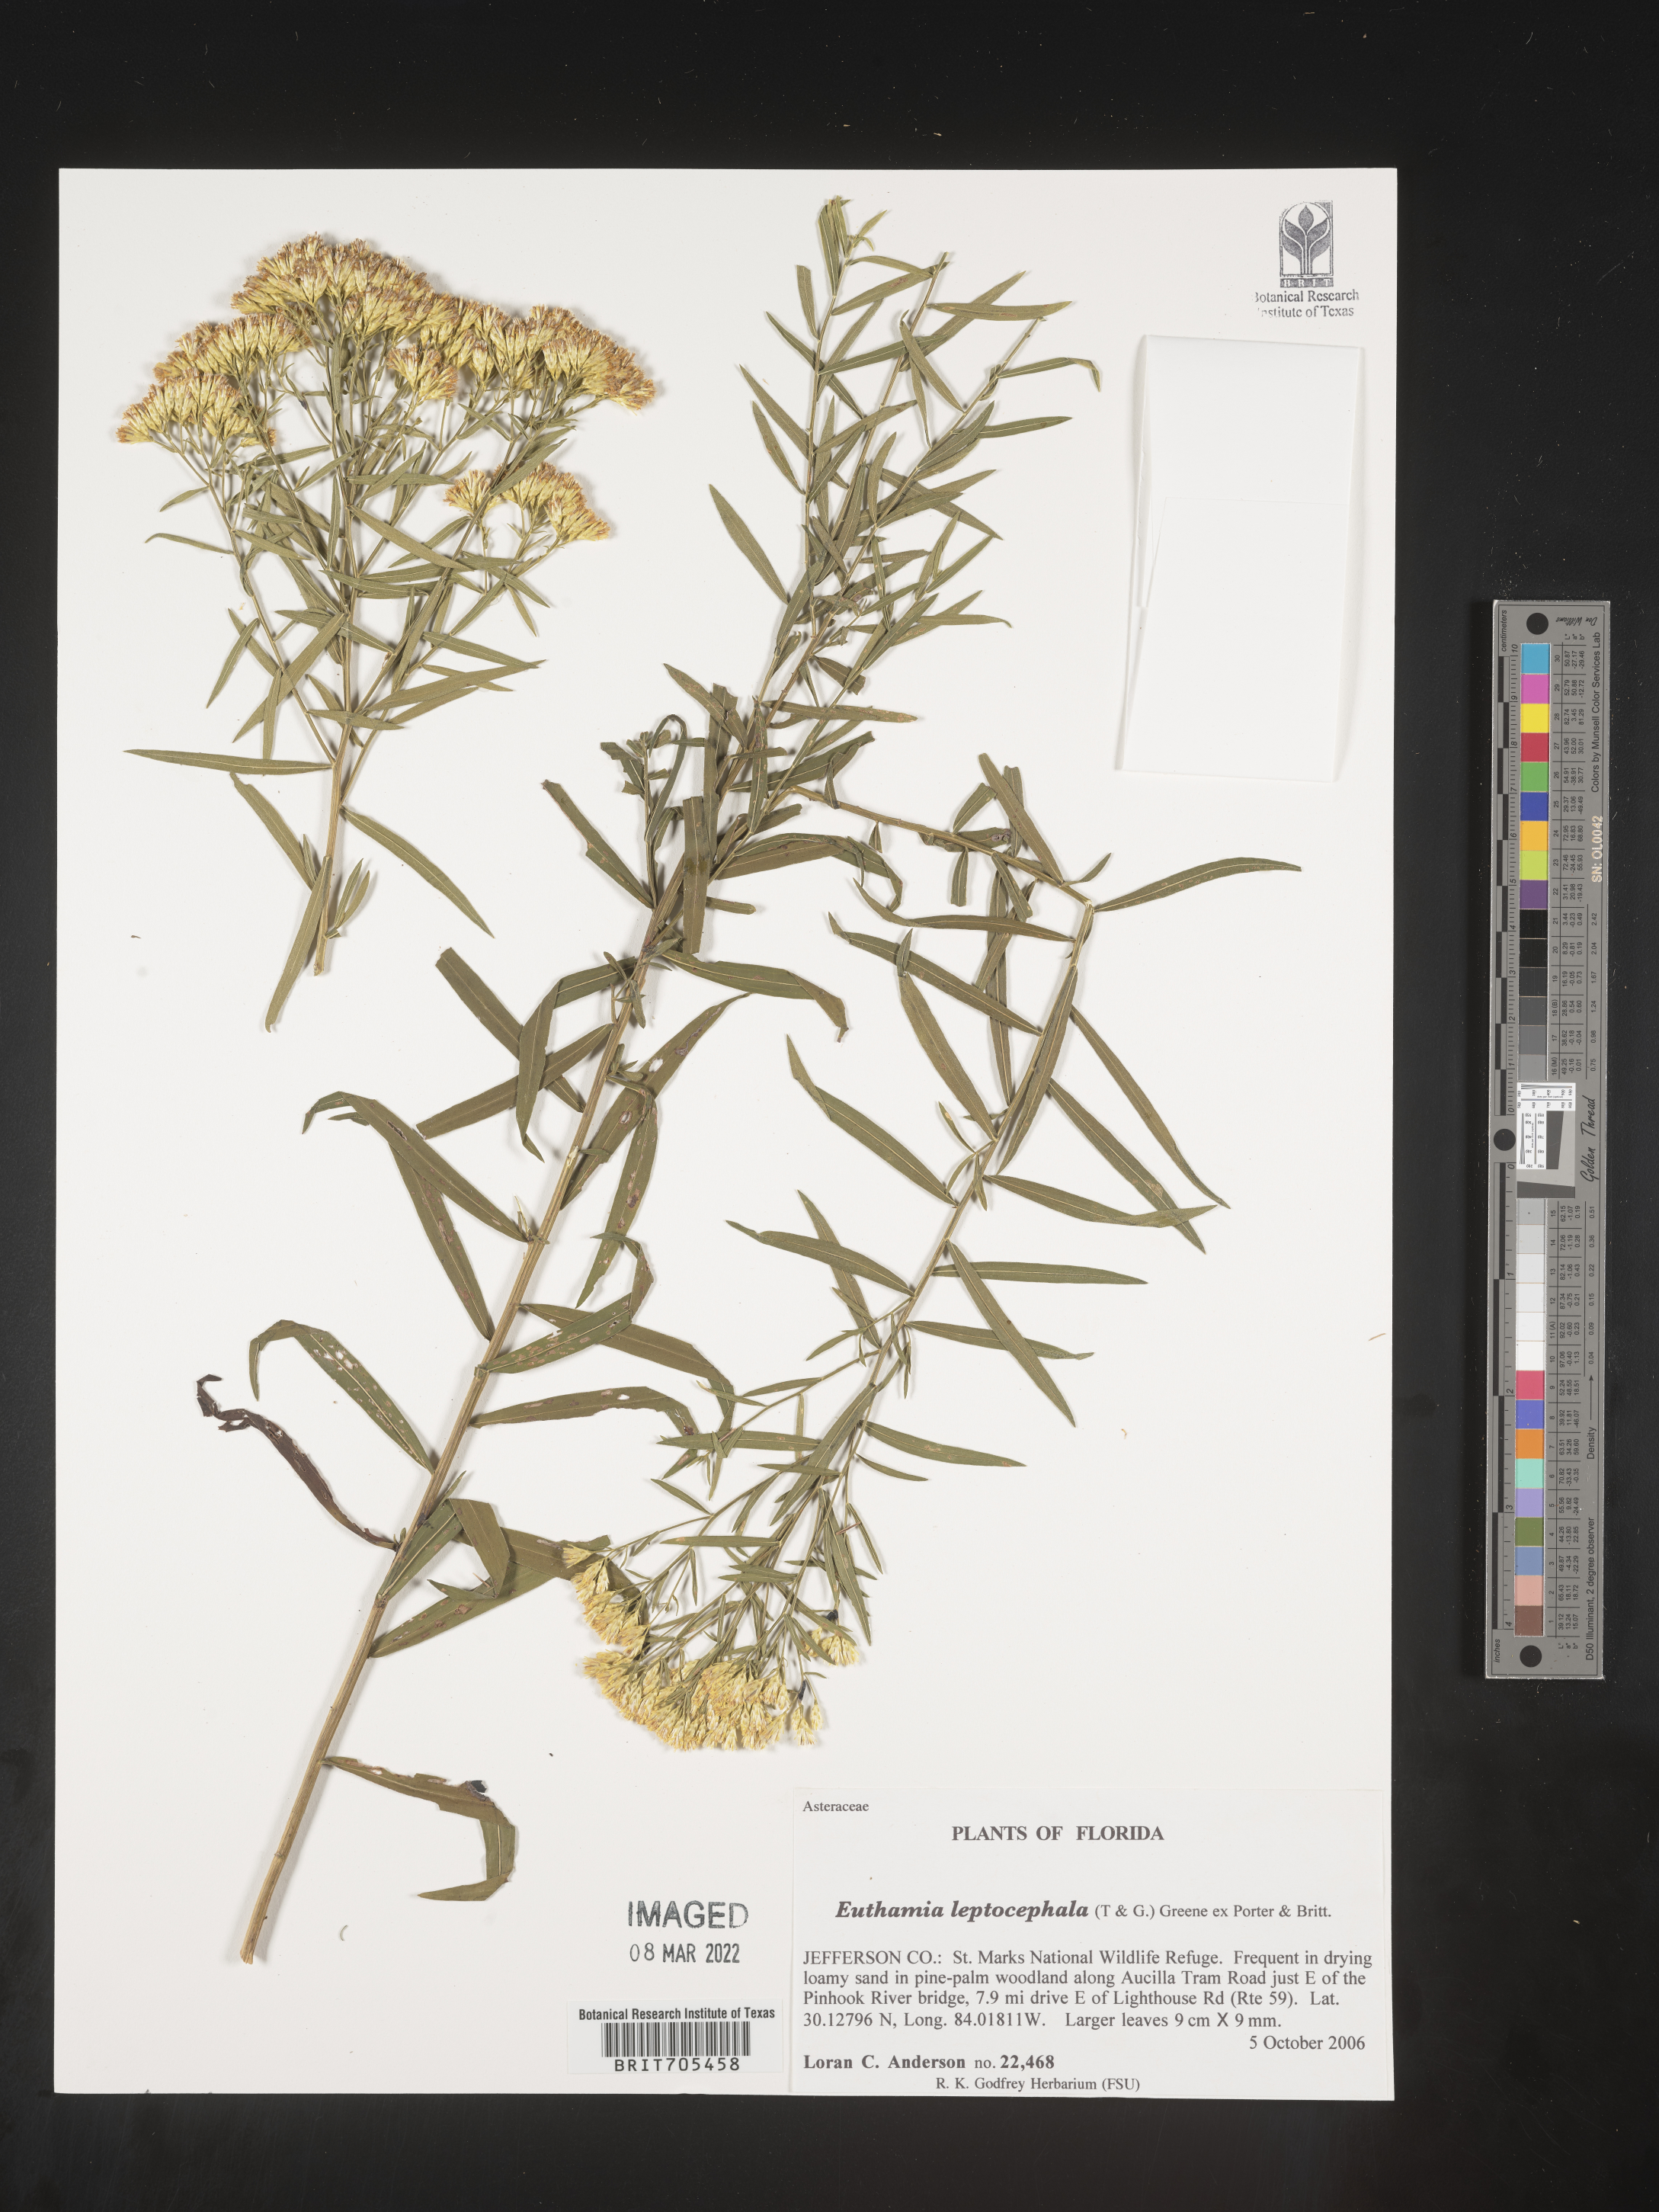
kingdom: Plantae
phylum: Tracheophyta
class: Magnoliopsida
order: Asterales
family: Asteraceae
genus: Euthamia
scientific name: Euthamia scabra
